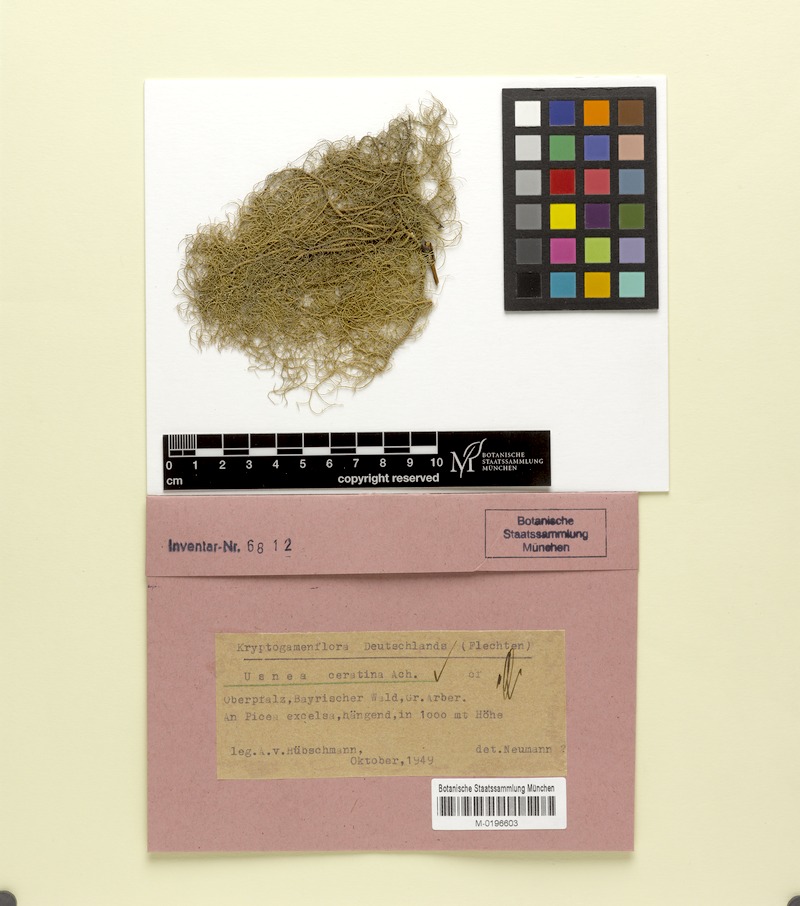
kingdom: Fungi
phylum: Ascomycota
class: Lecanoromycetes
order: Lecanorales
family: Parmeliaceae
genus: Usnea
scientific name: Usnea ceratina
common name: Warty beard lichen
